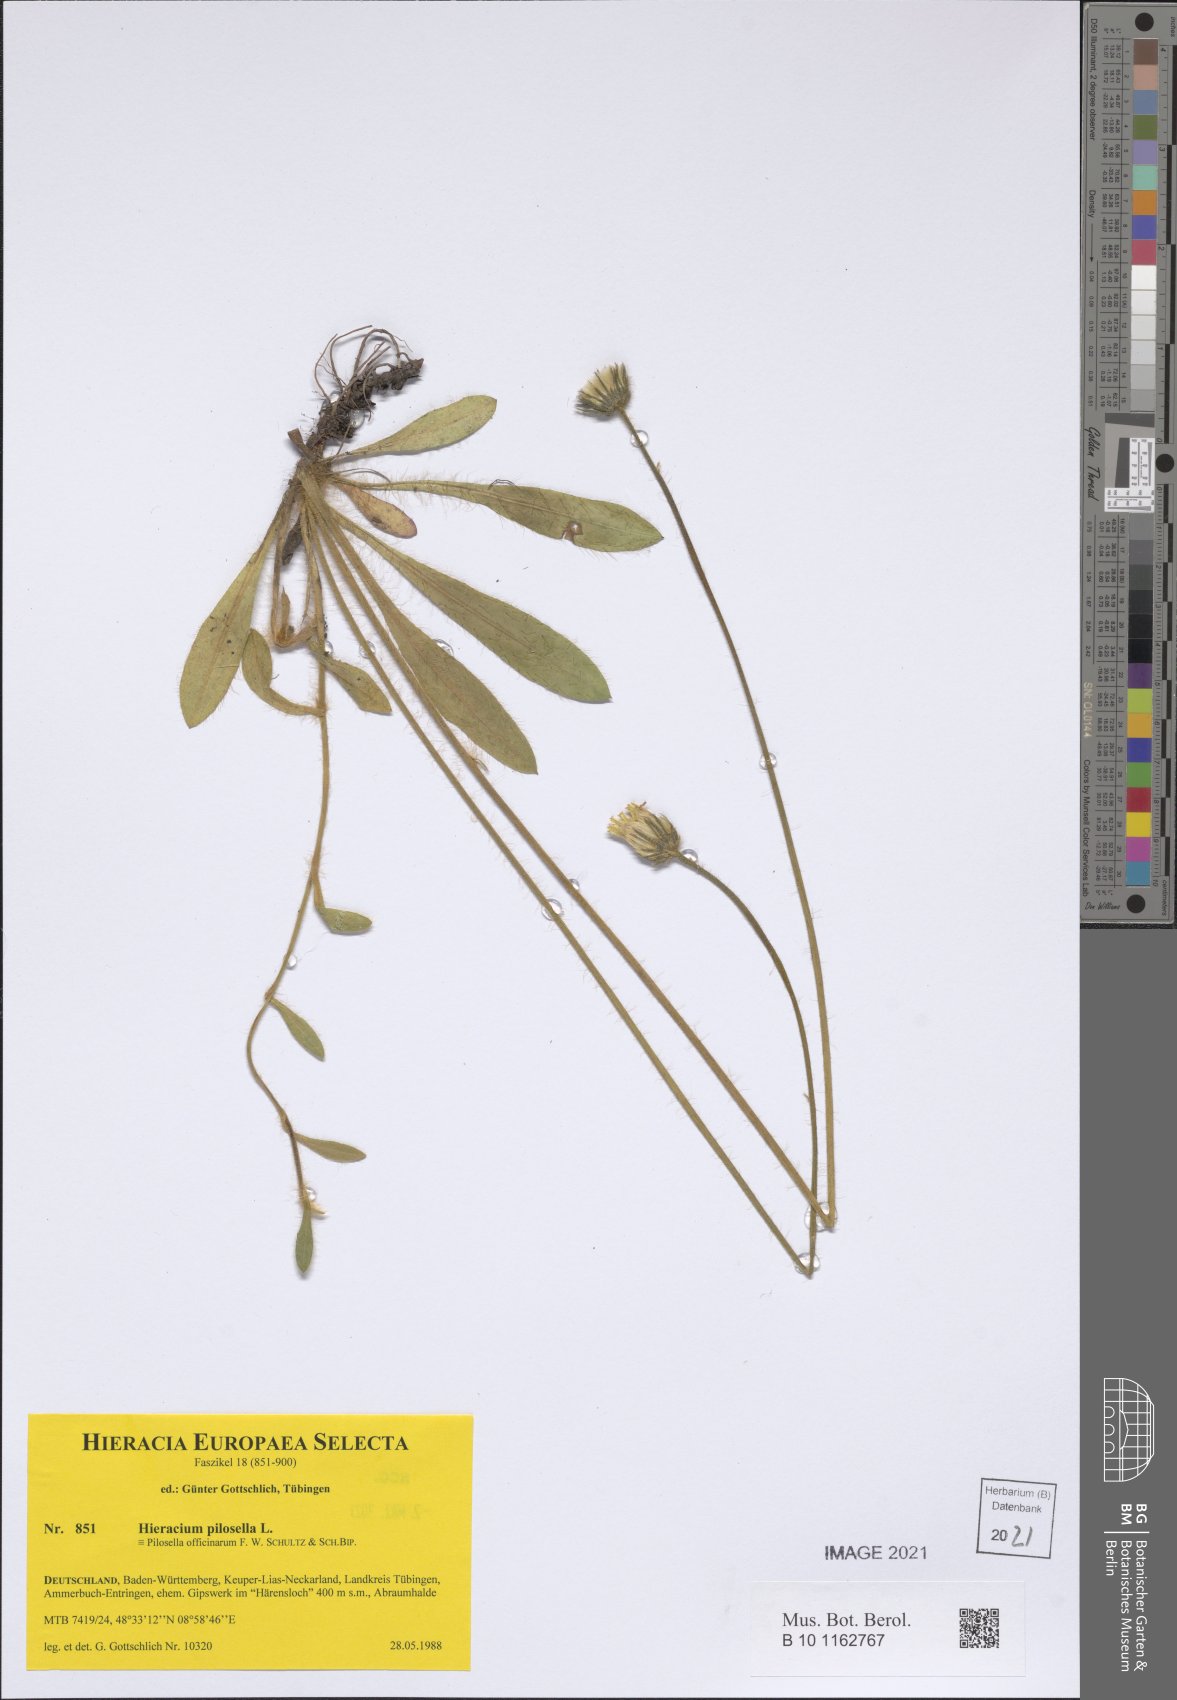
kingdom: Plantae
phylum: Tracheophyta
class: Magnoliopsida
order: Asterales
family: Asteraceae
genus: Pilosella
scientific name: Pilosella officinarum
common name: Mouse-ear hawkweed
